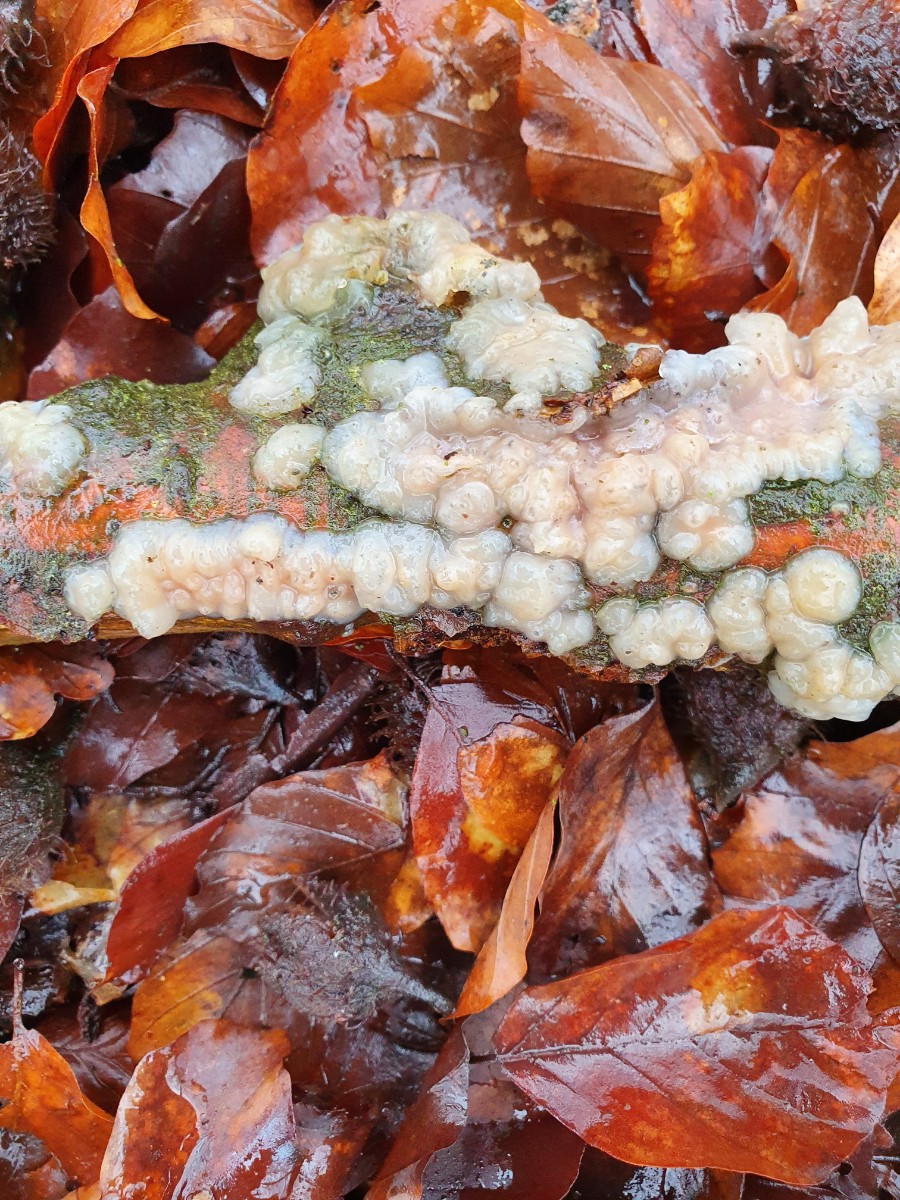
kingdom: Fungi
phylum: Basidiomycota
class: Agaricomycetes
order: Auriculariales
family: Auriculariaceae
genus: Exidia
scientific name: Exidia thuretiana
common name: hvidlig bævretop
